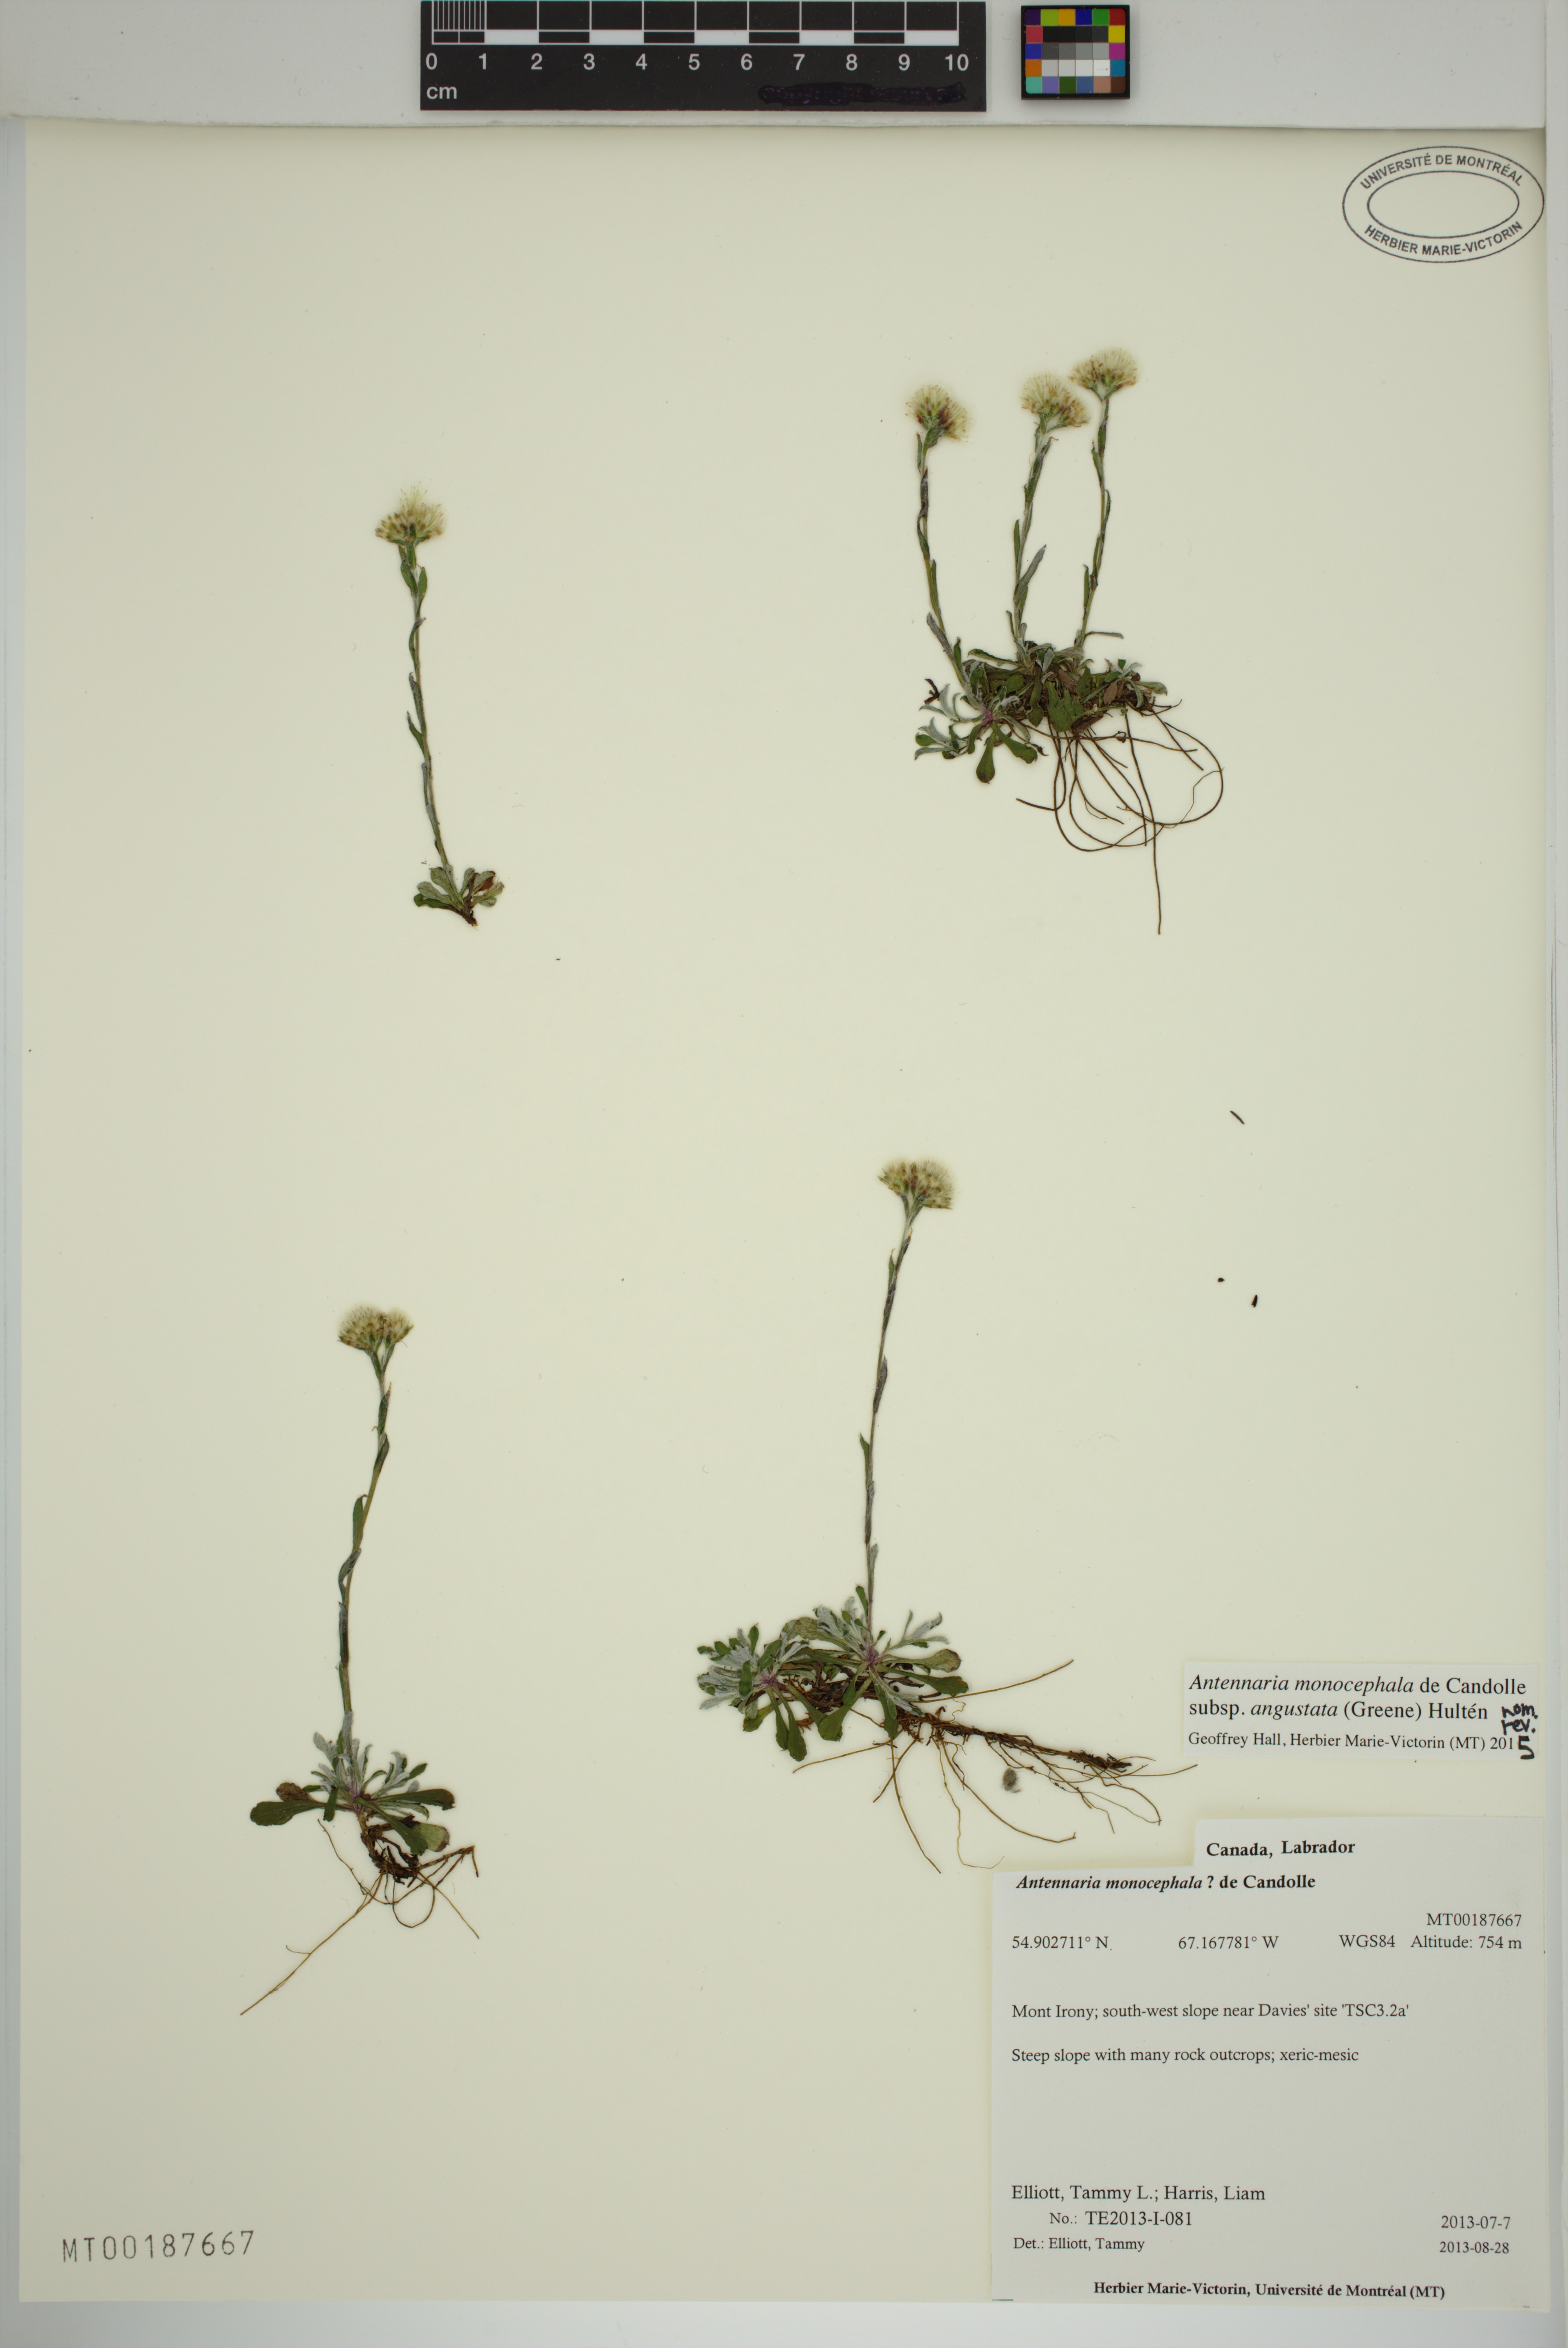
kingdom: Plantae
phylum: Tracheophyta
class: Magnoliopsida
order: Asterales
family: Asteraceae
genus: Antennaria
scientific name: Antennaria howellii
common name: Howell's pussytoes
